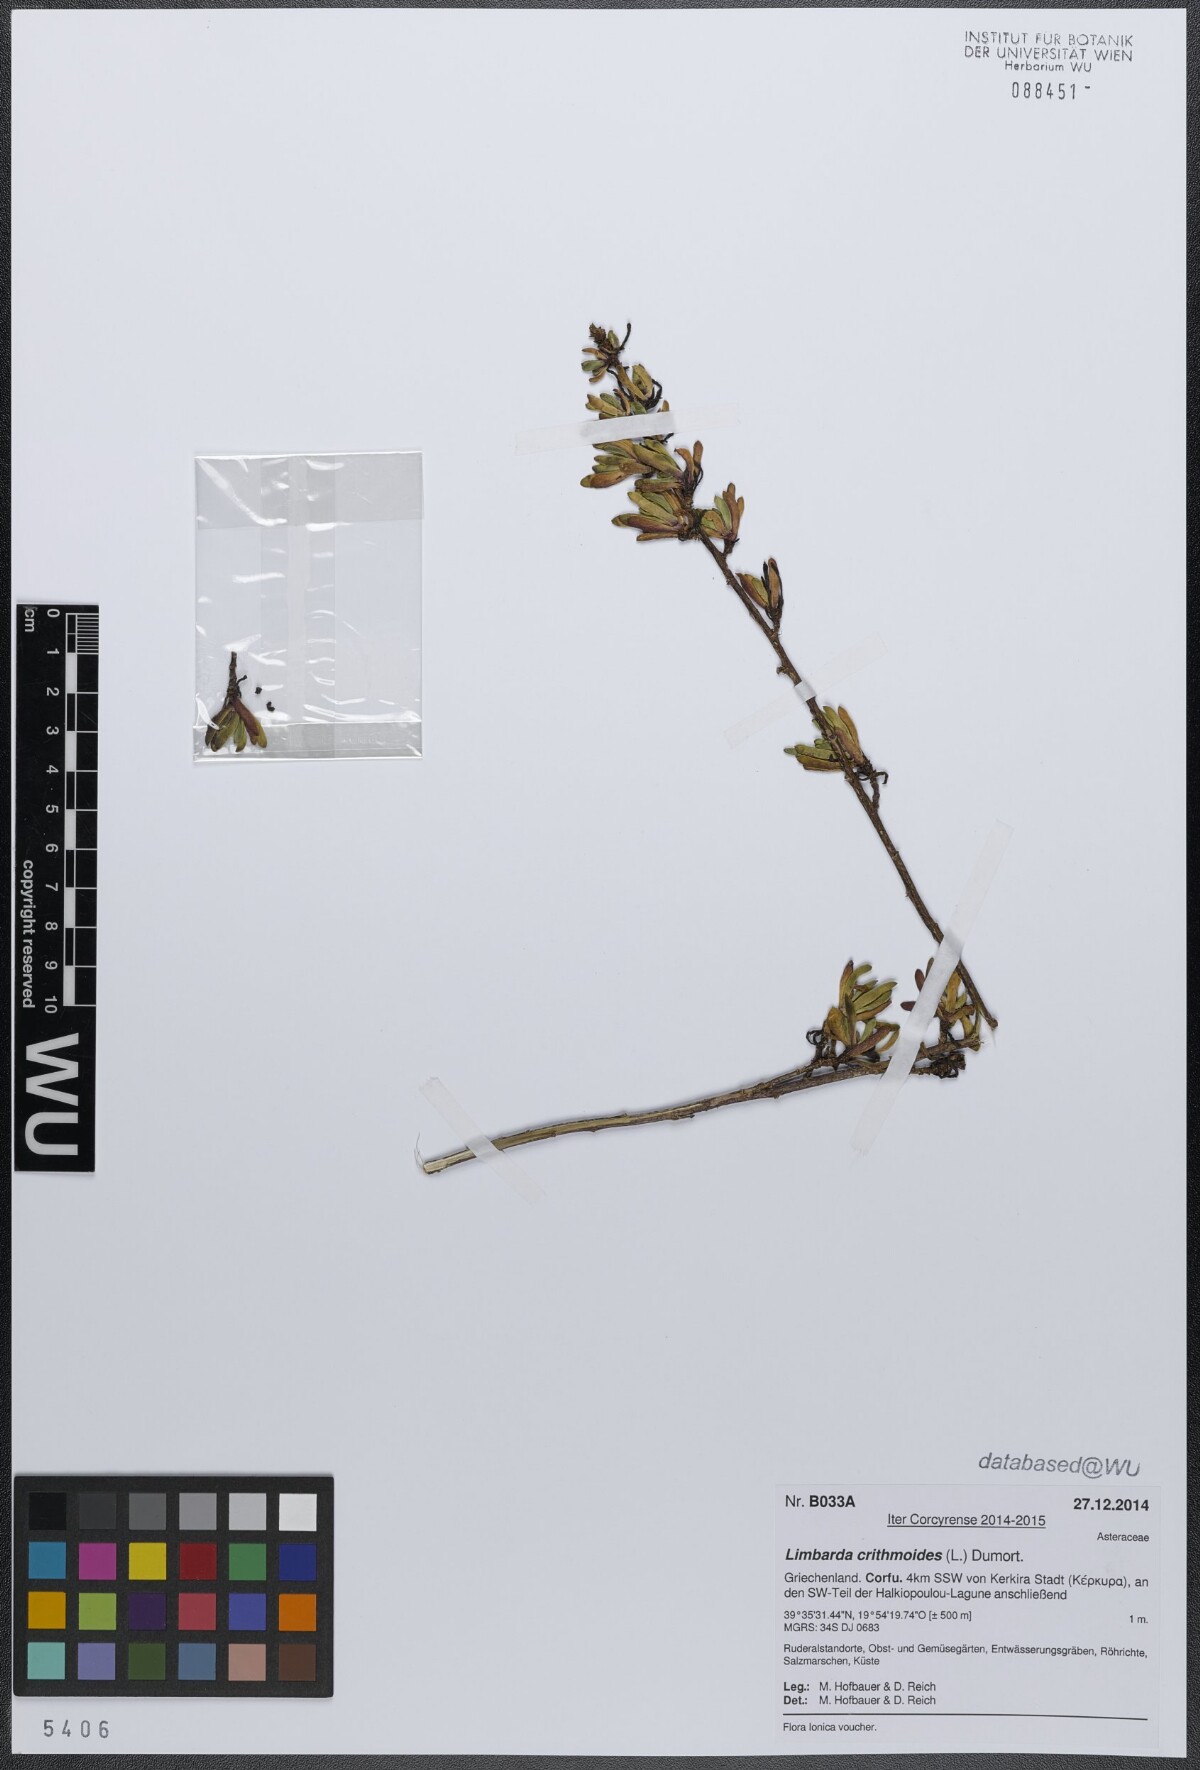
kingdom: Plantae
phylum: Tracheophyta
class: Magnoliopsida
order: Asterales
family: Asteraceae
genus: Limbarda
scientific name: Limbarda crithmoides
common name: Golden samphire
